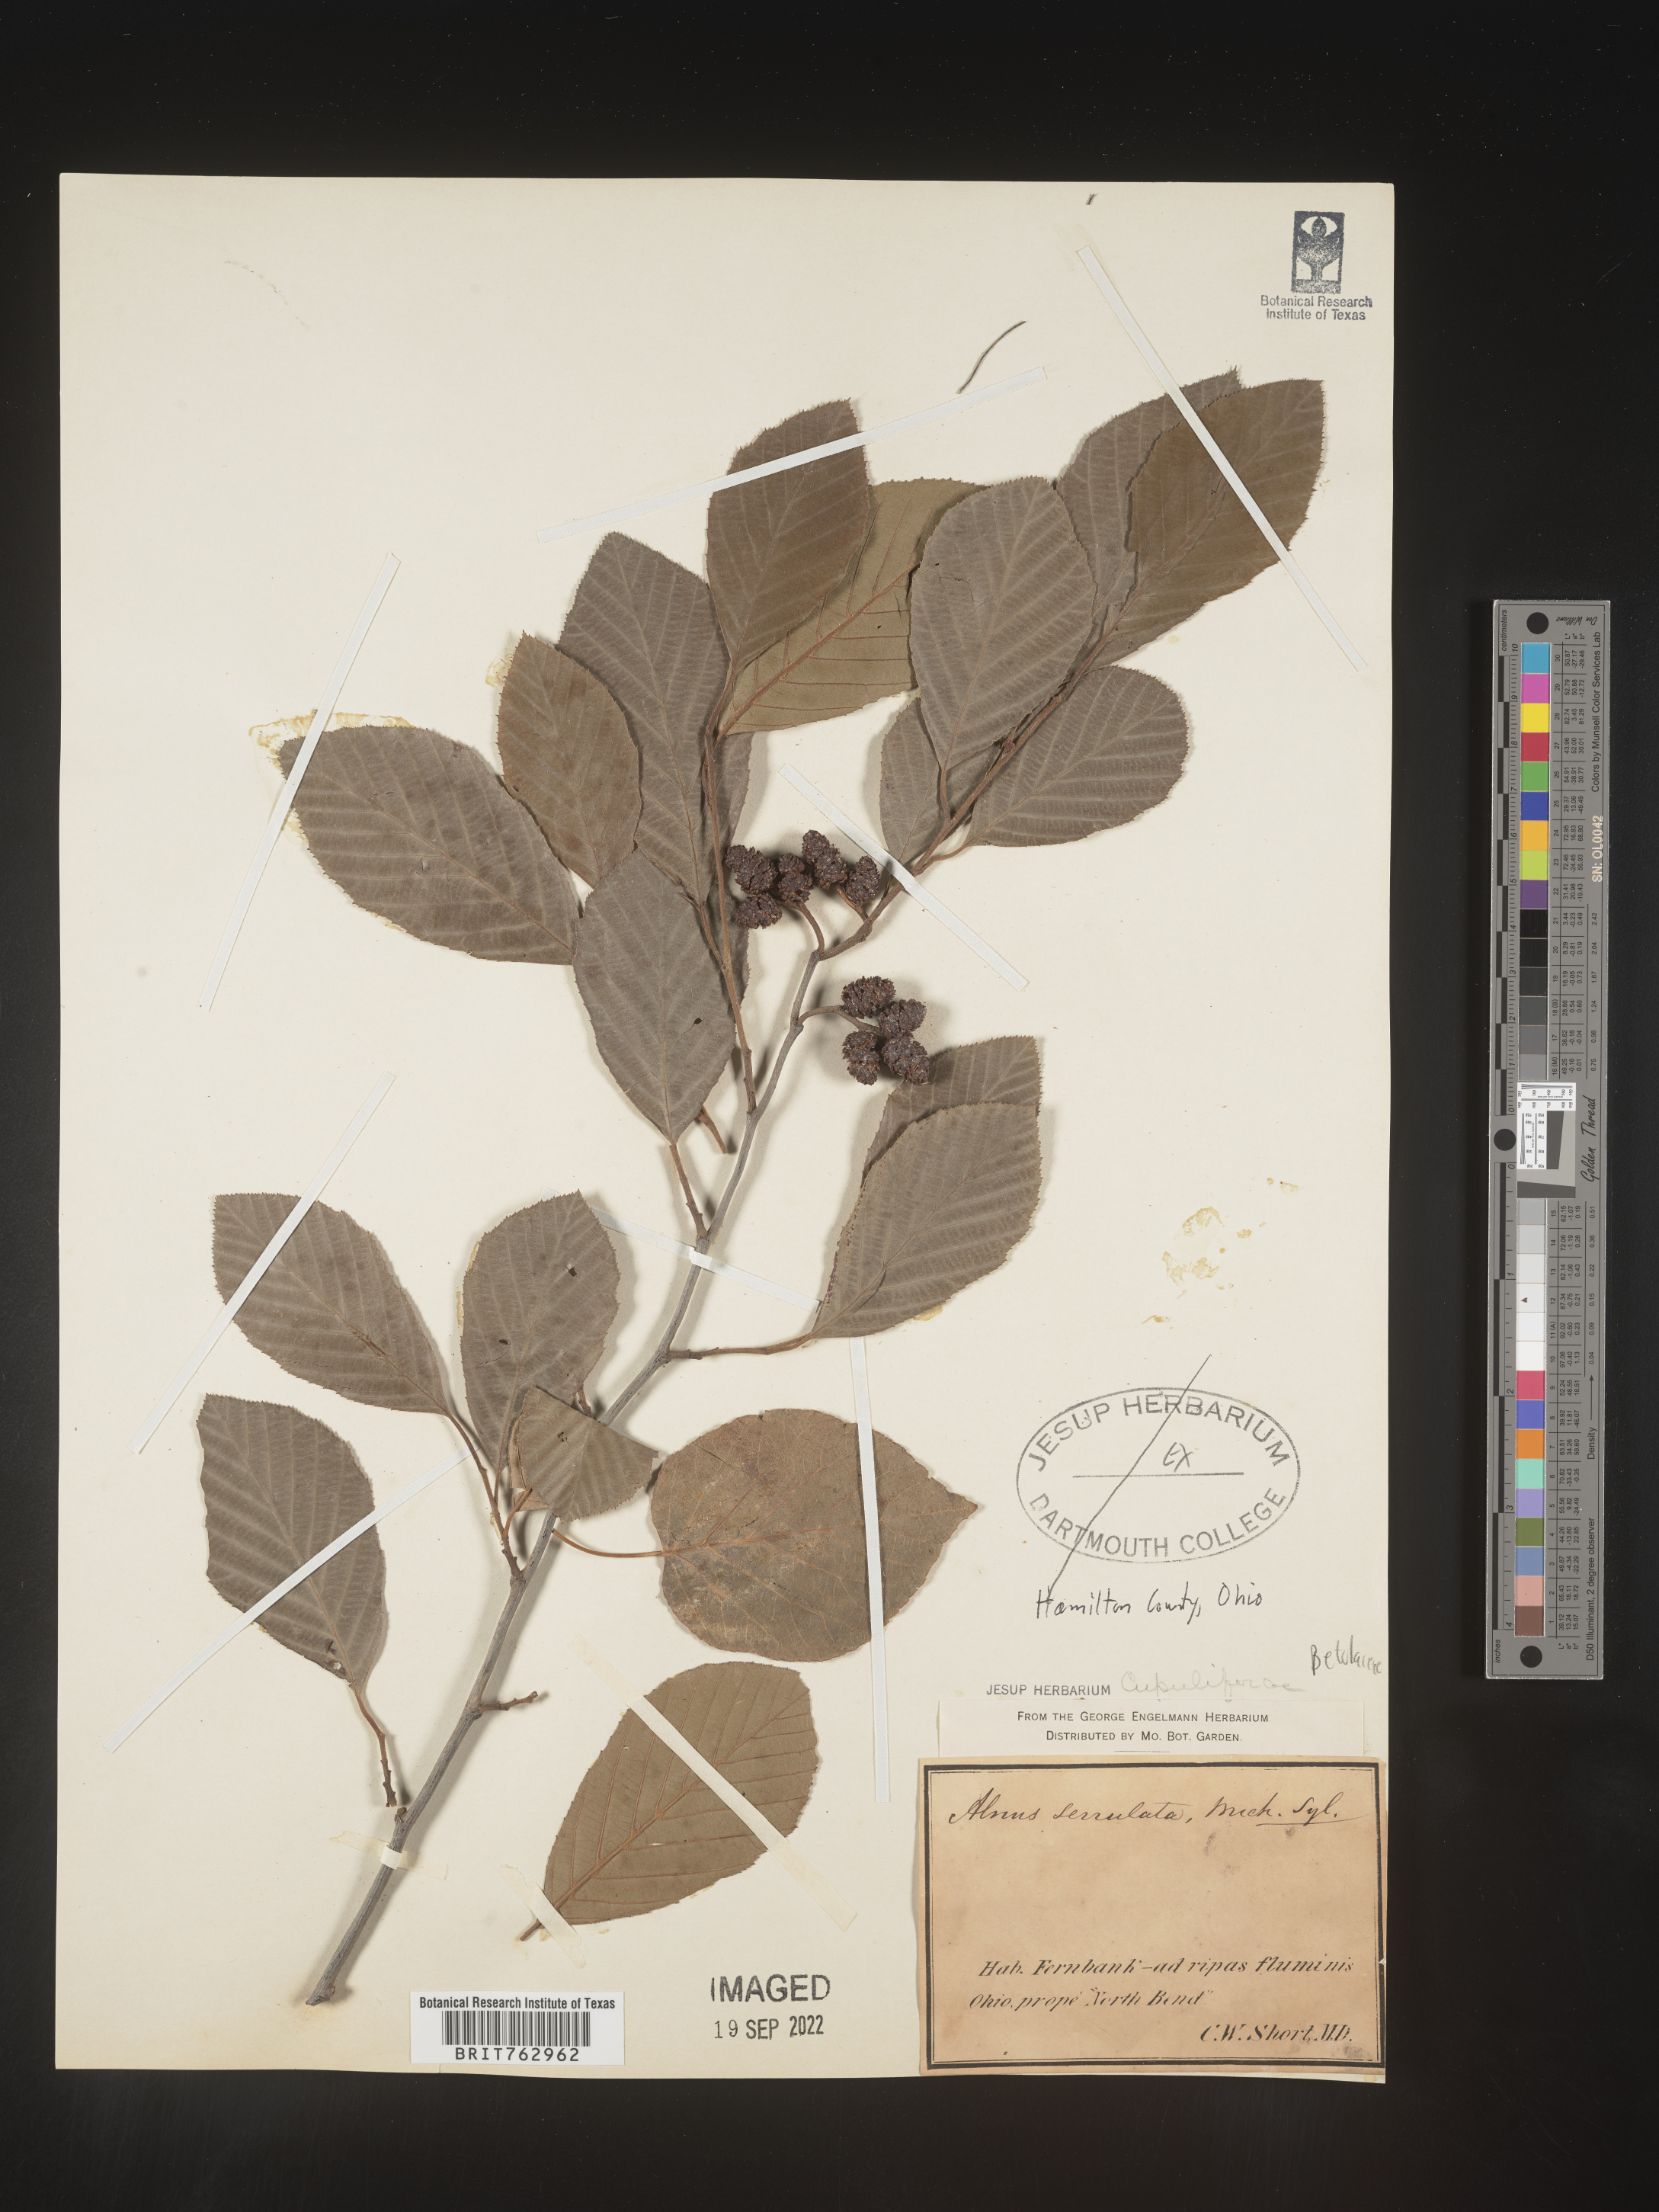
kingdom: Plantae
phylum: Tracheophyta
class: Magnoliopsida
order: Fagales
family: Betulaceae
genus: Alnus
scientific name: Alnus serrulata
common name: Hazel alder
